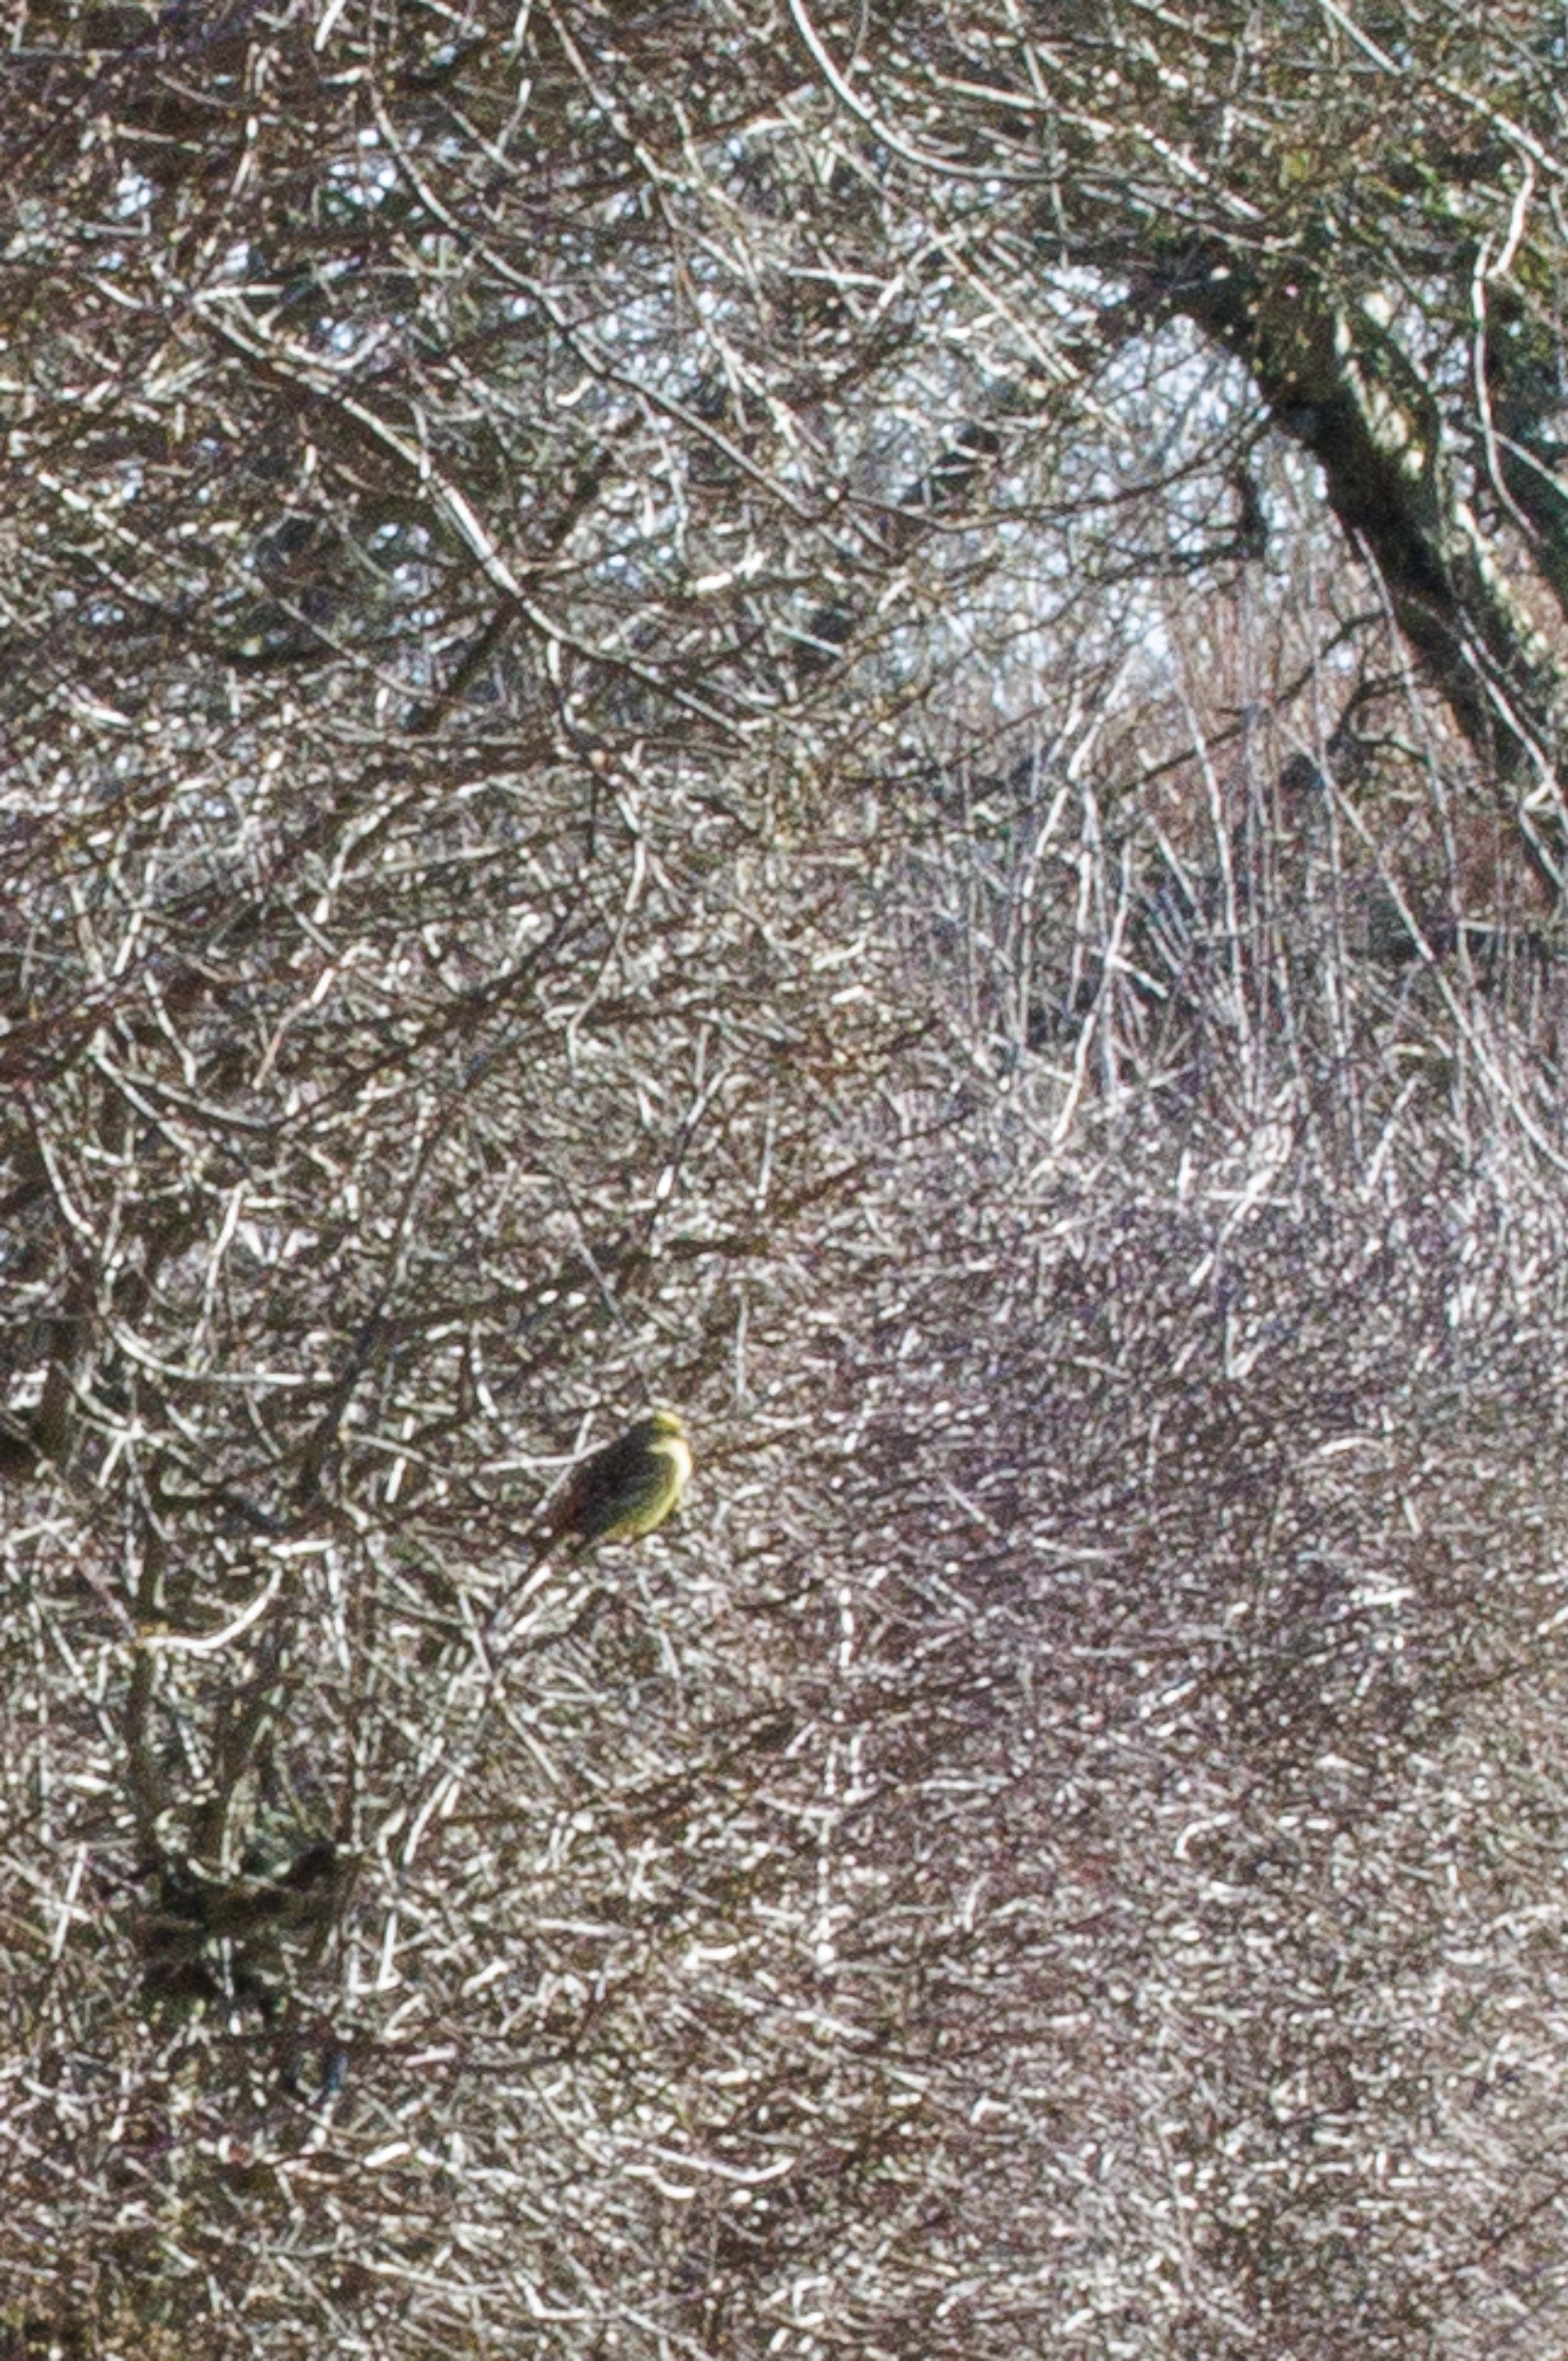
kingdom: Animalia
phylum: Chordata
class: Aves
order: Passeriformes
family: Emberizidae
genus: Emberiza
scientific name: Emberiza citrinella
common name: Gulspurv
